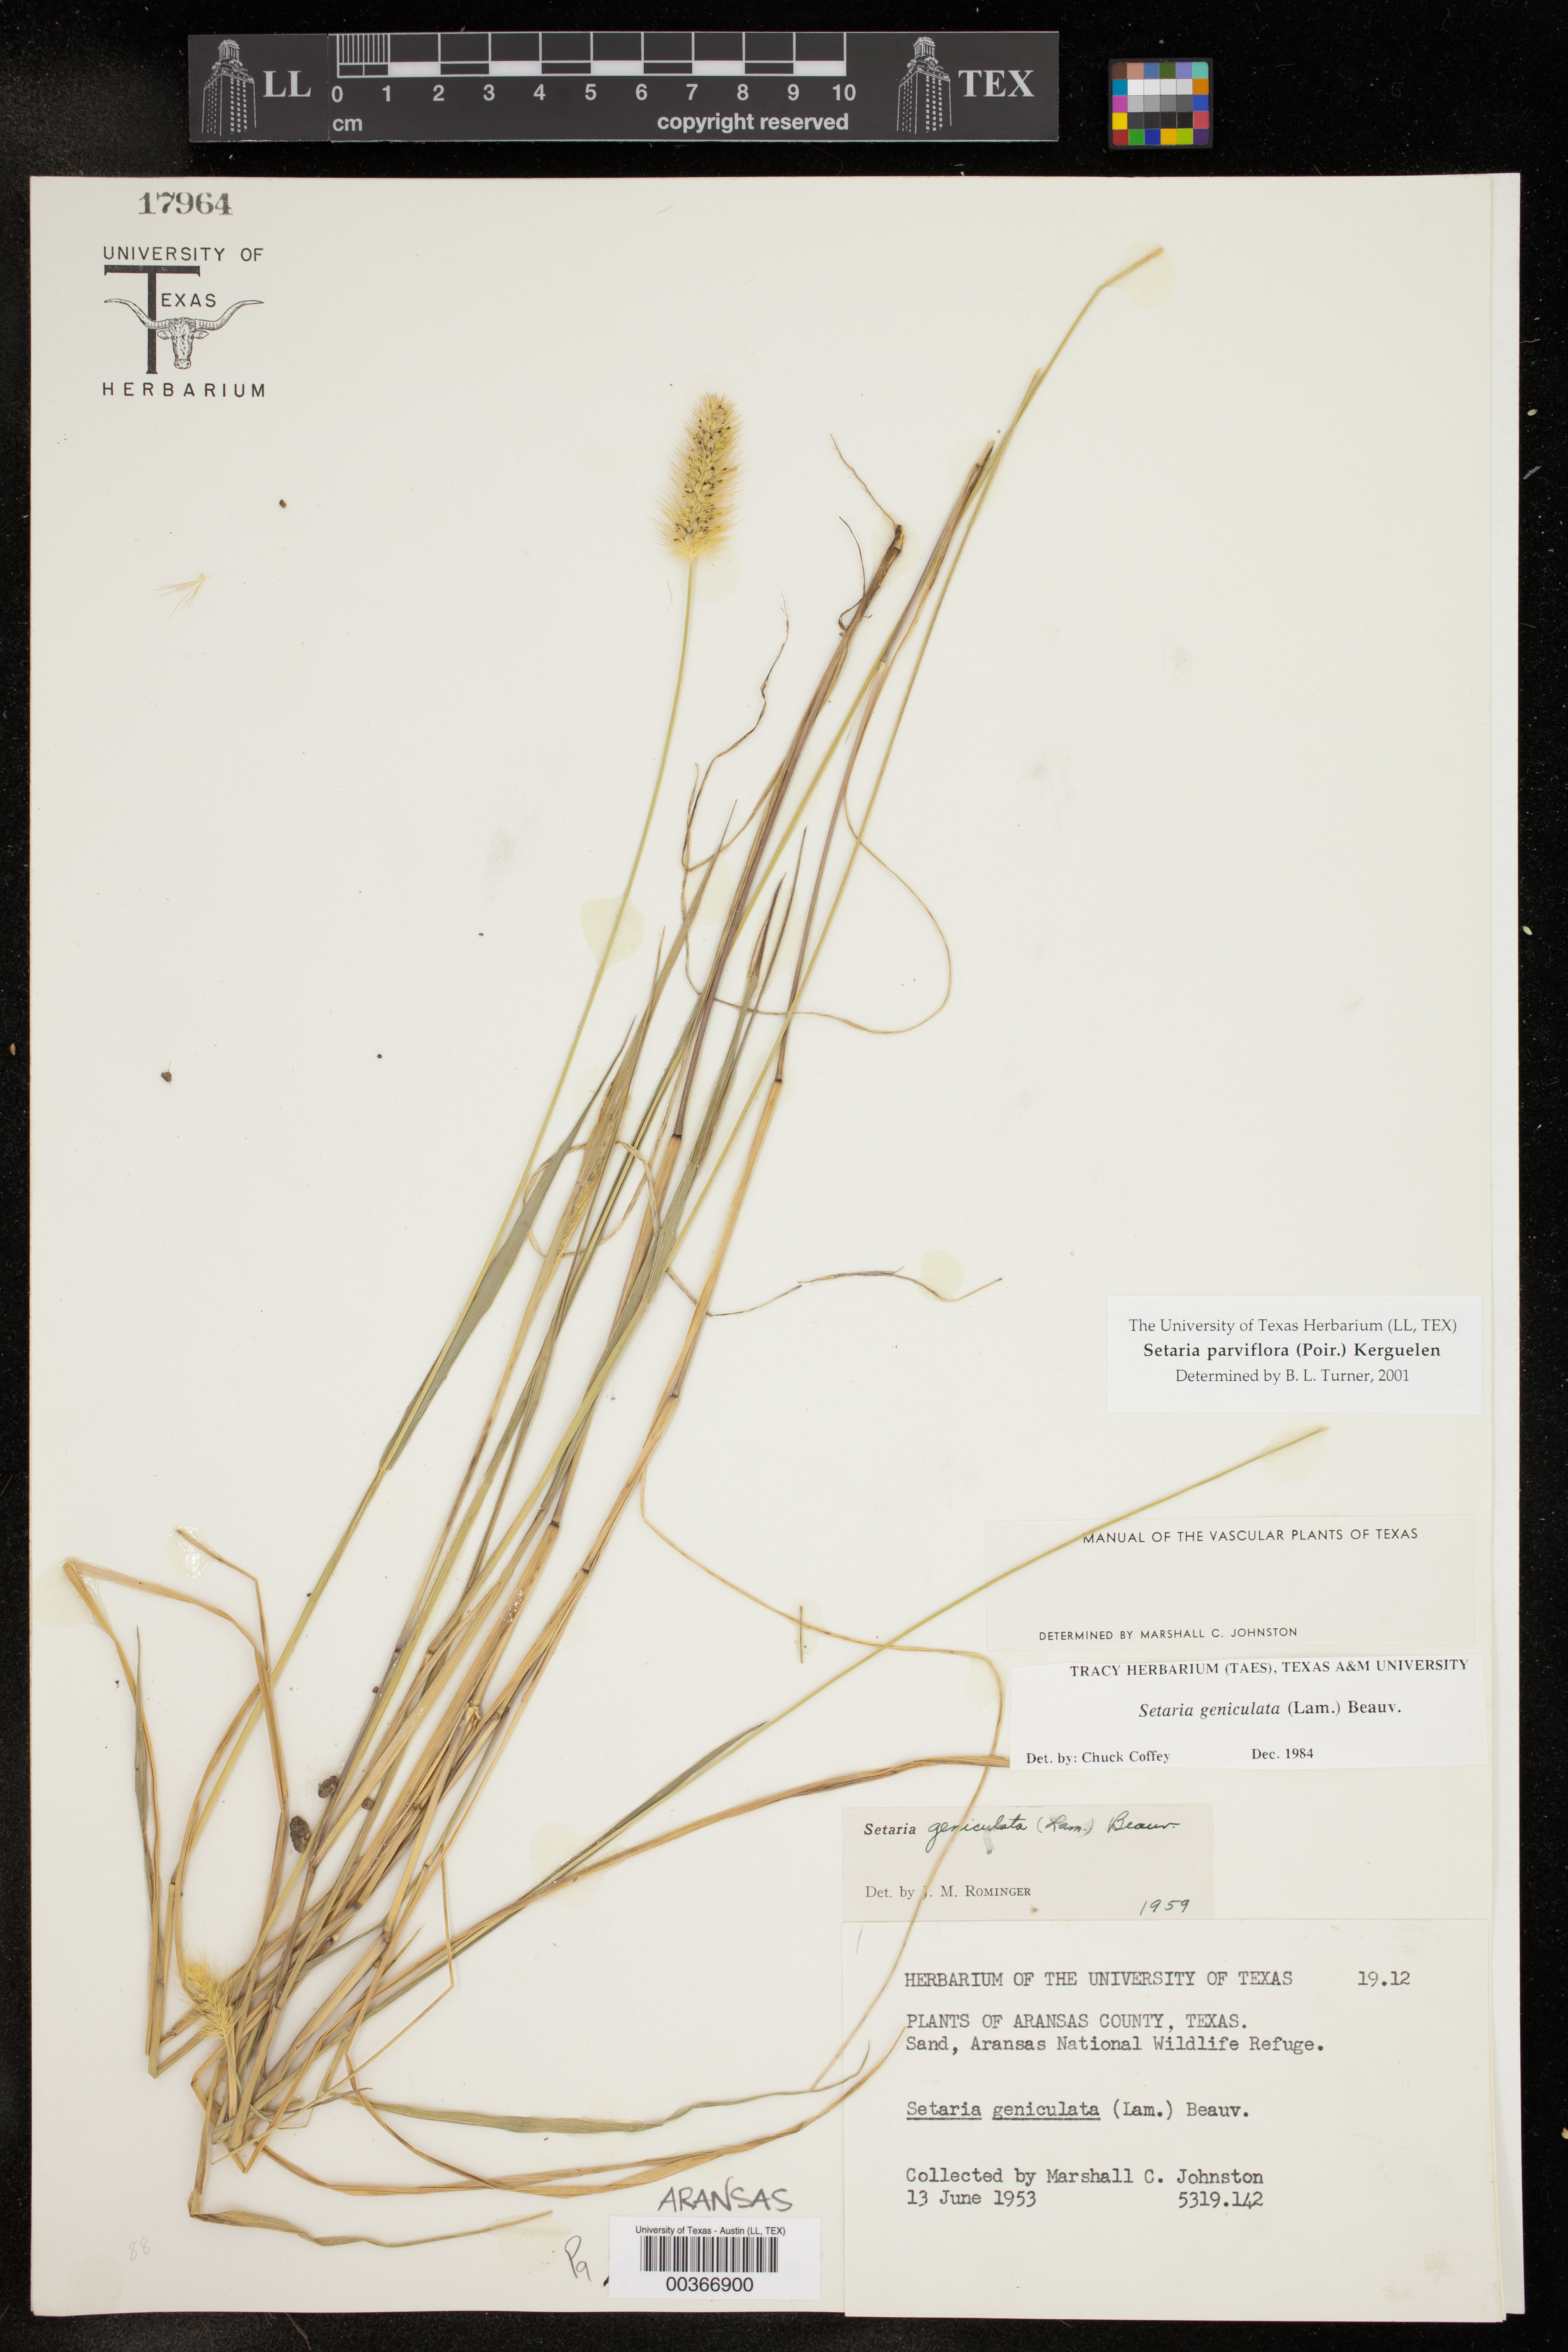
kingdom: Plantae
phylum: Tracheophyta
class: Liliopsida
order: Poales
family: Poaceae
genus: Setaria
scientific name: Setaria parviflora
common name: Knotroot bristle-grass
